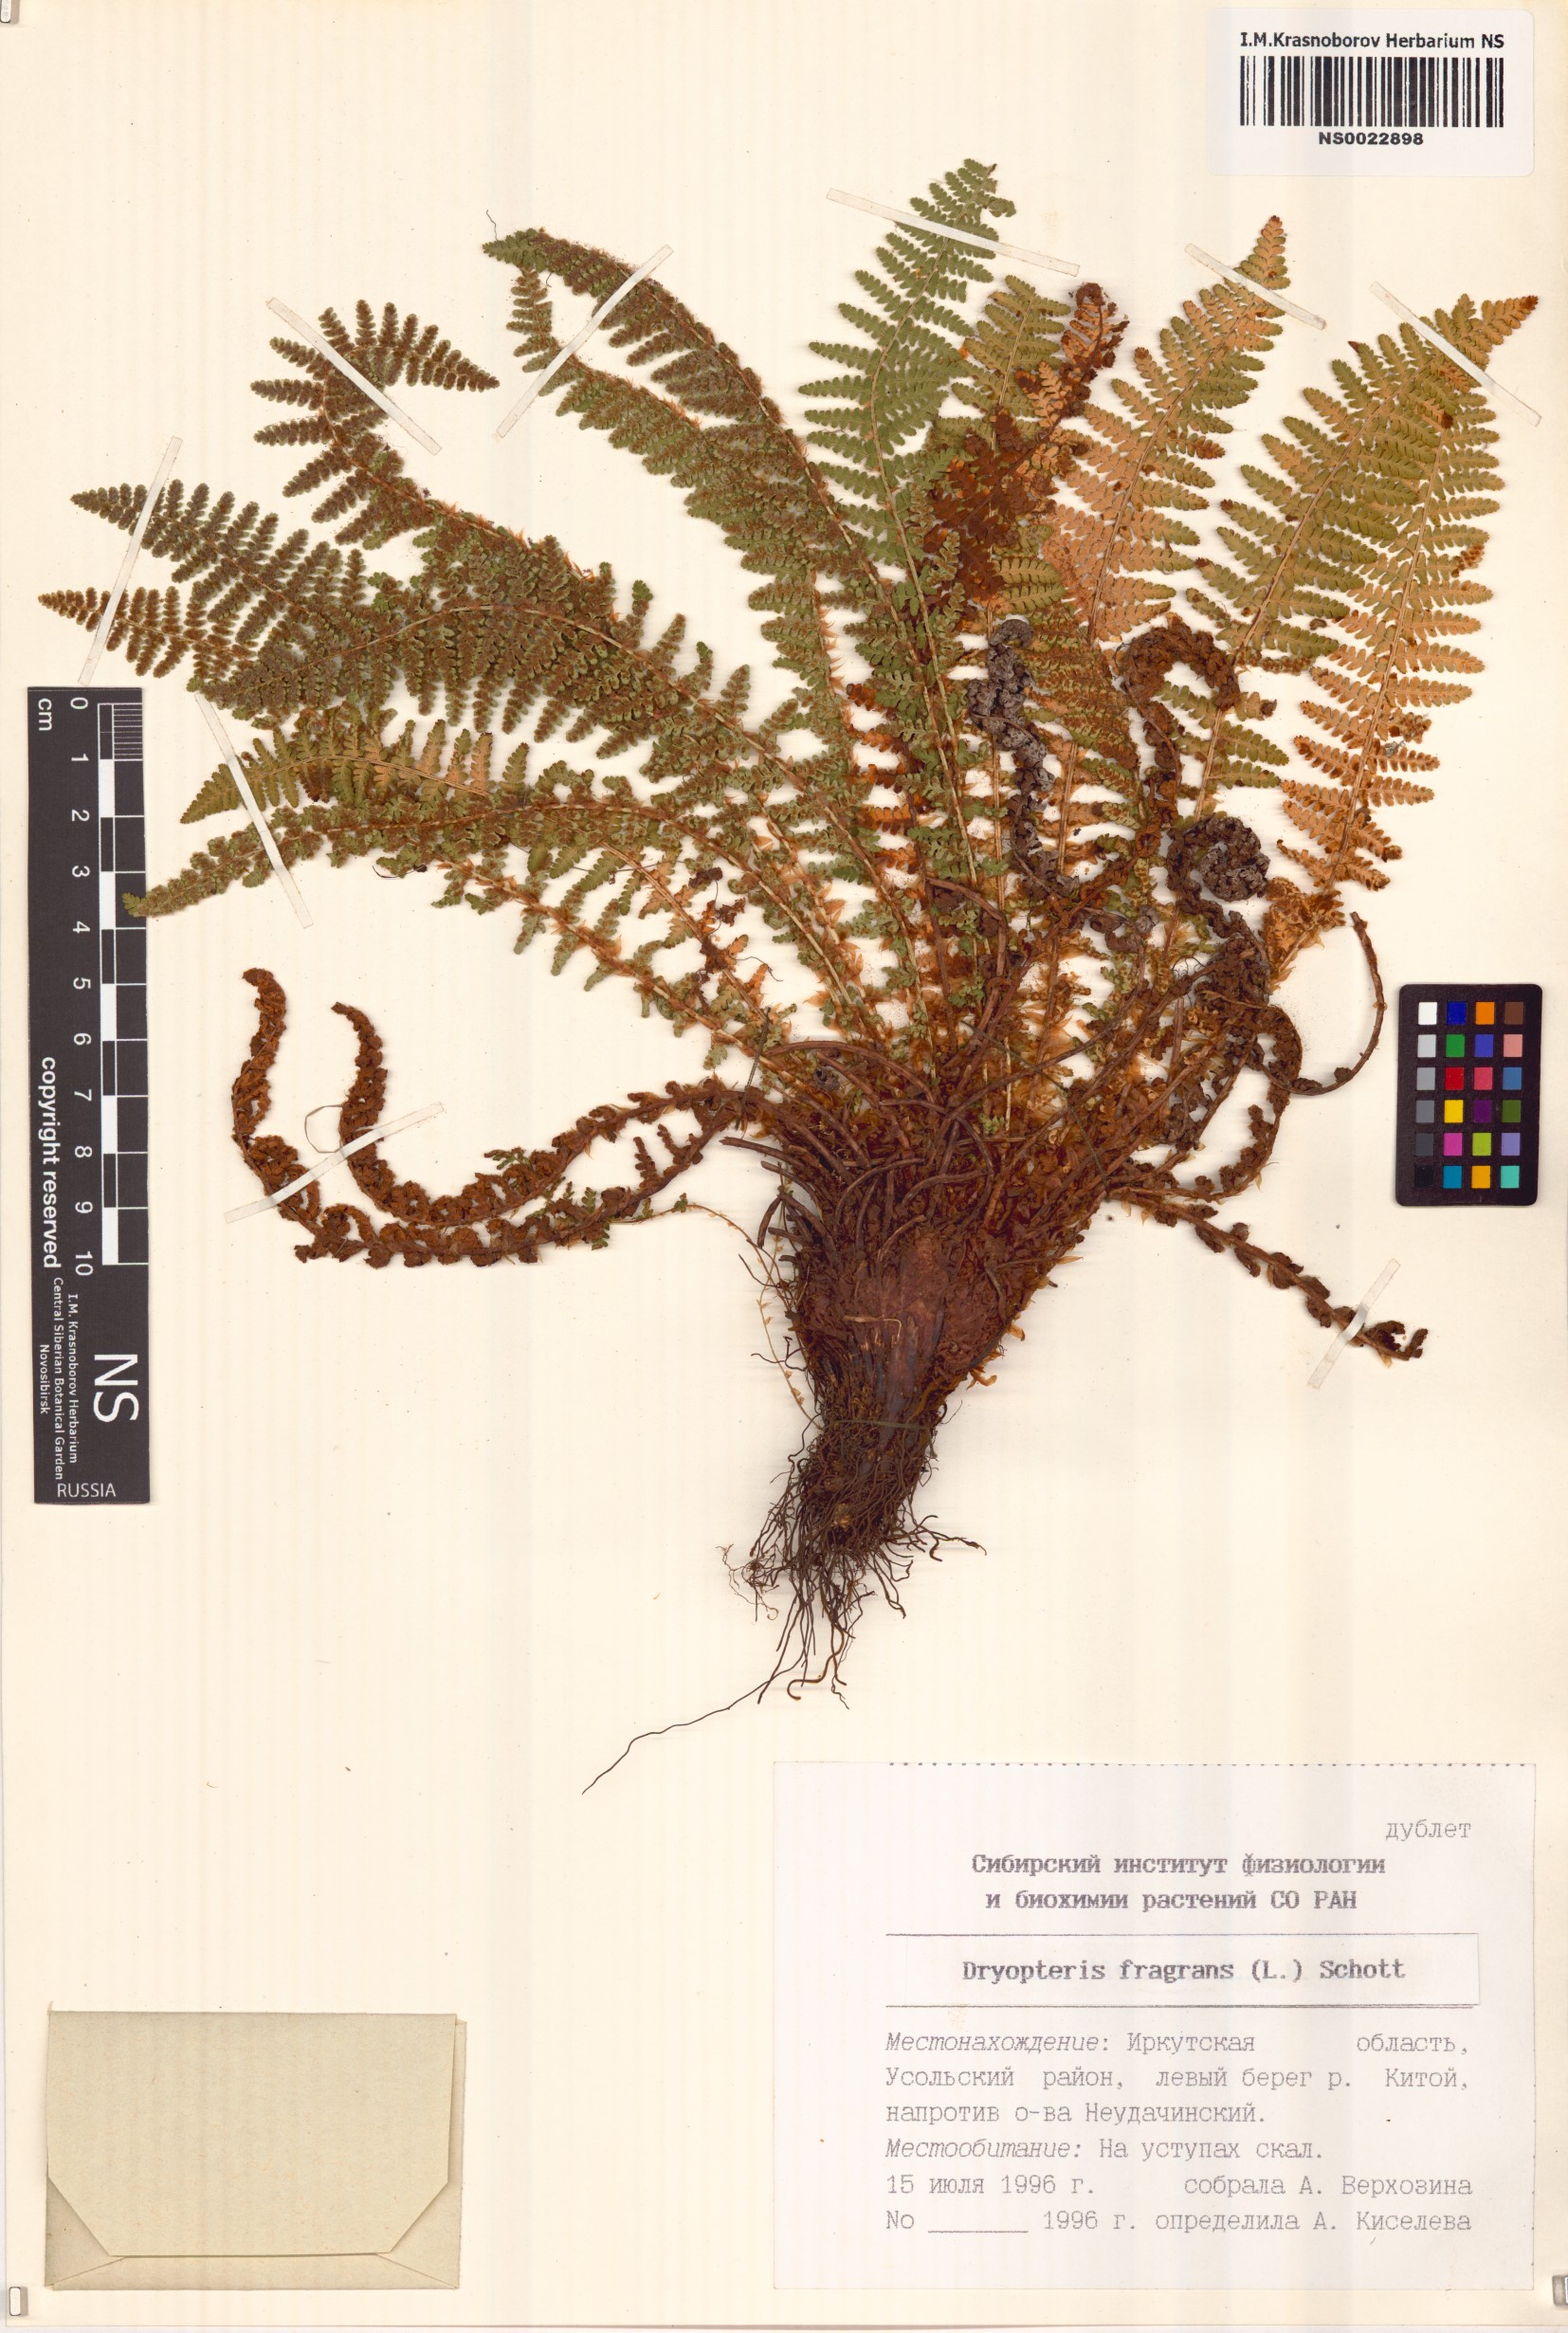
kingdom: Plantae
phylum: Tracheophyta
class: Polypodiopsida
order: Polypodiales
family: Dryopteridaceae
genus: Dryopteris
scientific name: Dryopteris fragrans
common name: Fragrant wood fern
